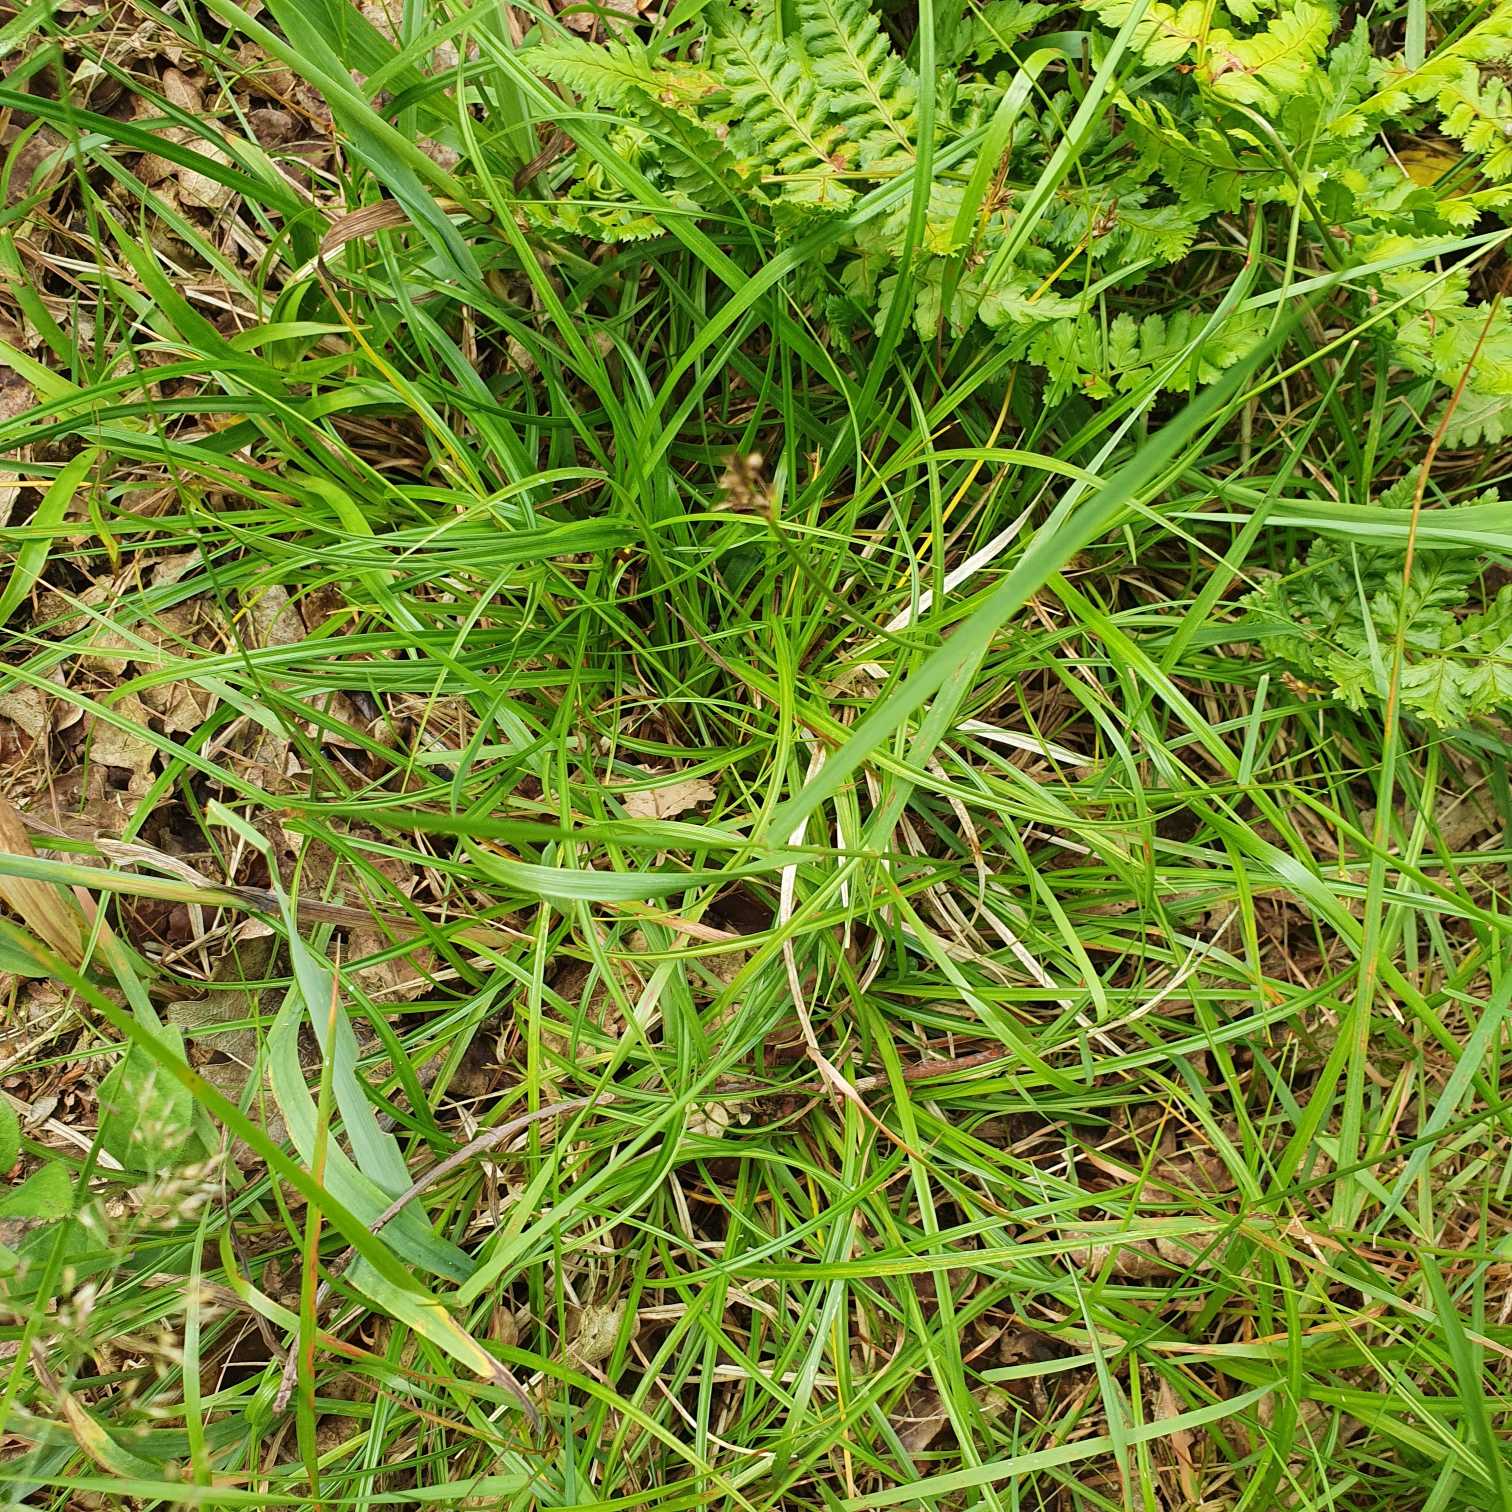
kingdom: Plantae
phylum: Tracheophyta
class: Liliopsida
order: Poales
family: Cyperaceae
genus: Carex
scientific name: Carex pilulifera
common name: Pille-star
